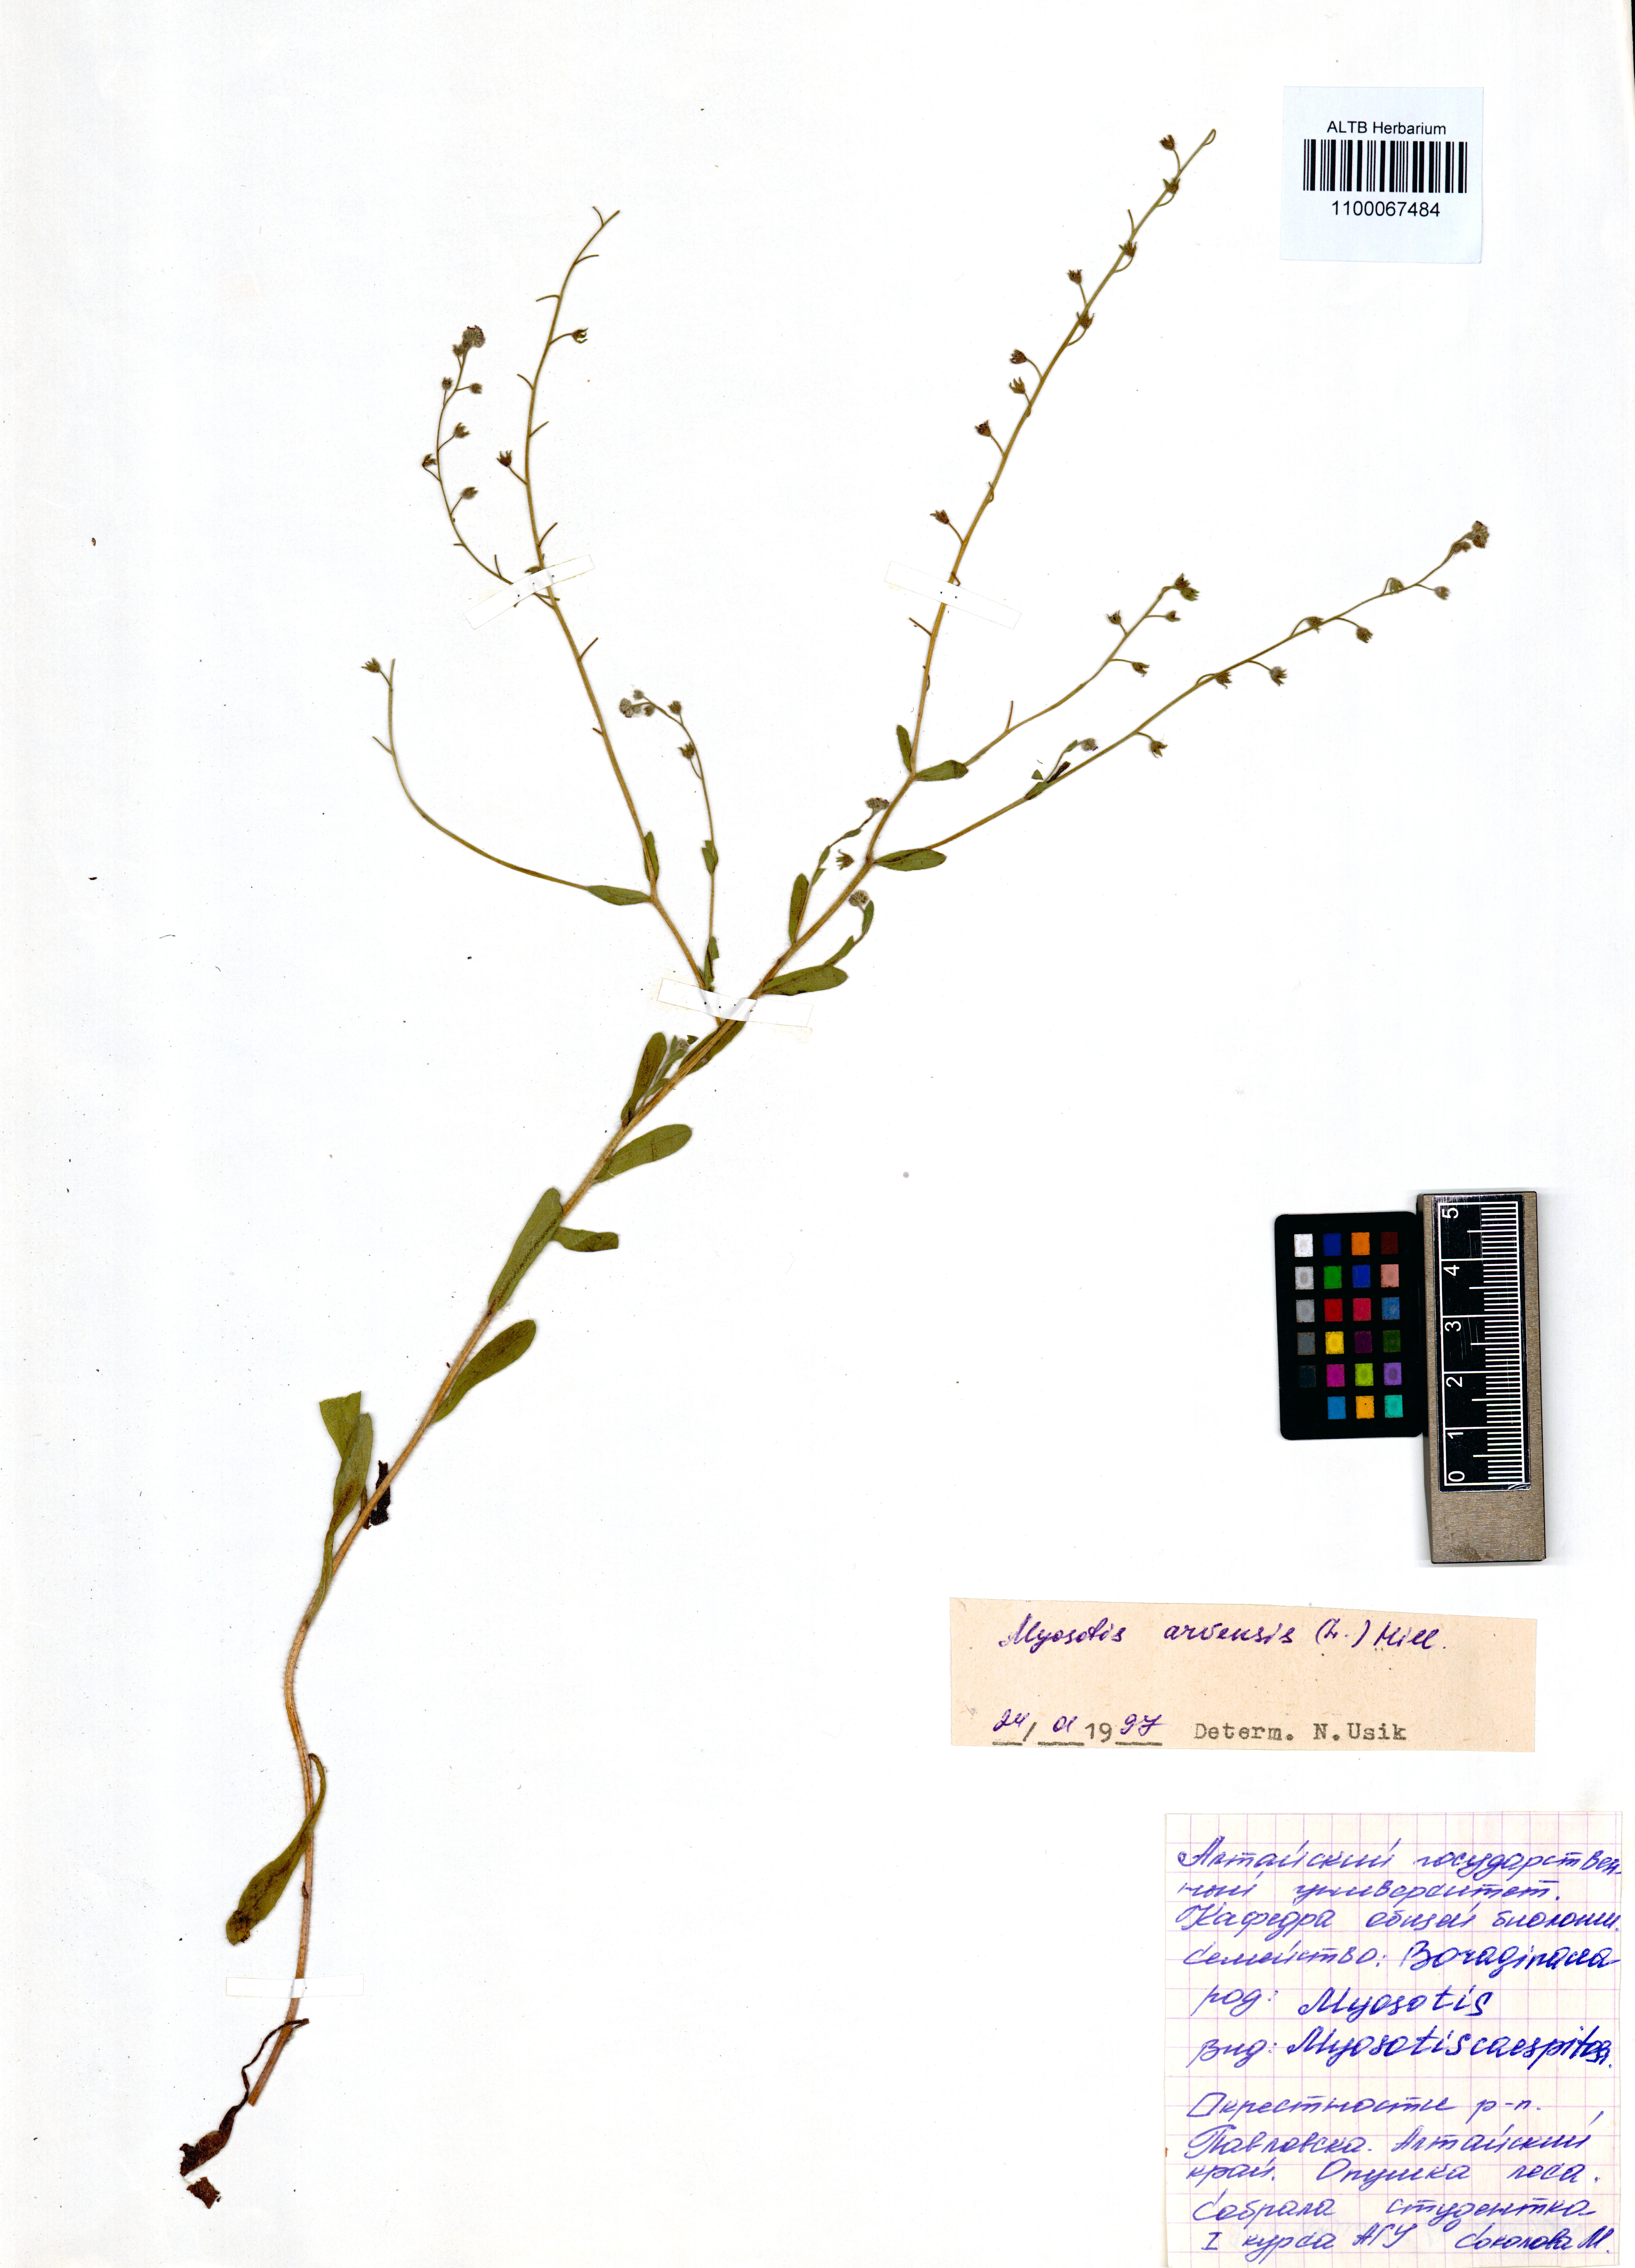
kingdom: Plantae
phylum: Tracheophyta
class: Magnoliopsida
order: Boraginales
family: Boraginaceae
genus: Myosotis
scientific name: Myosotis arvensis
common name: Field forget-me-not
